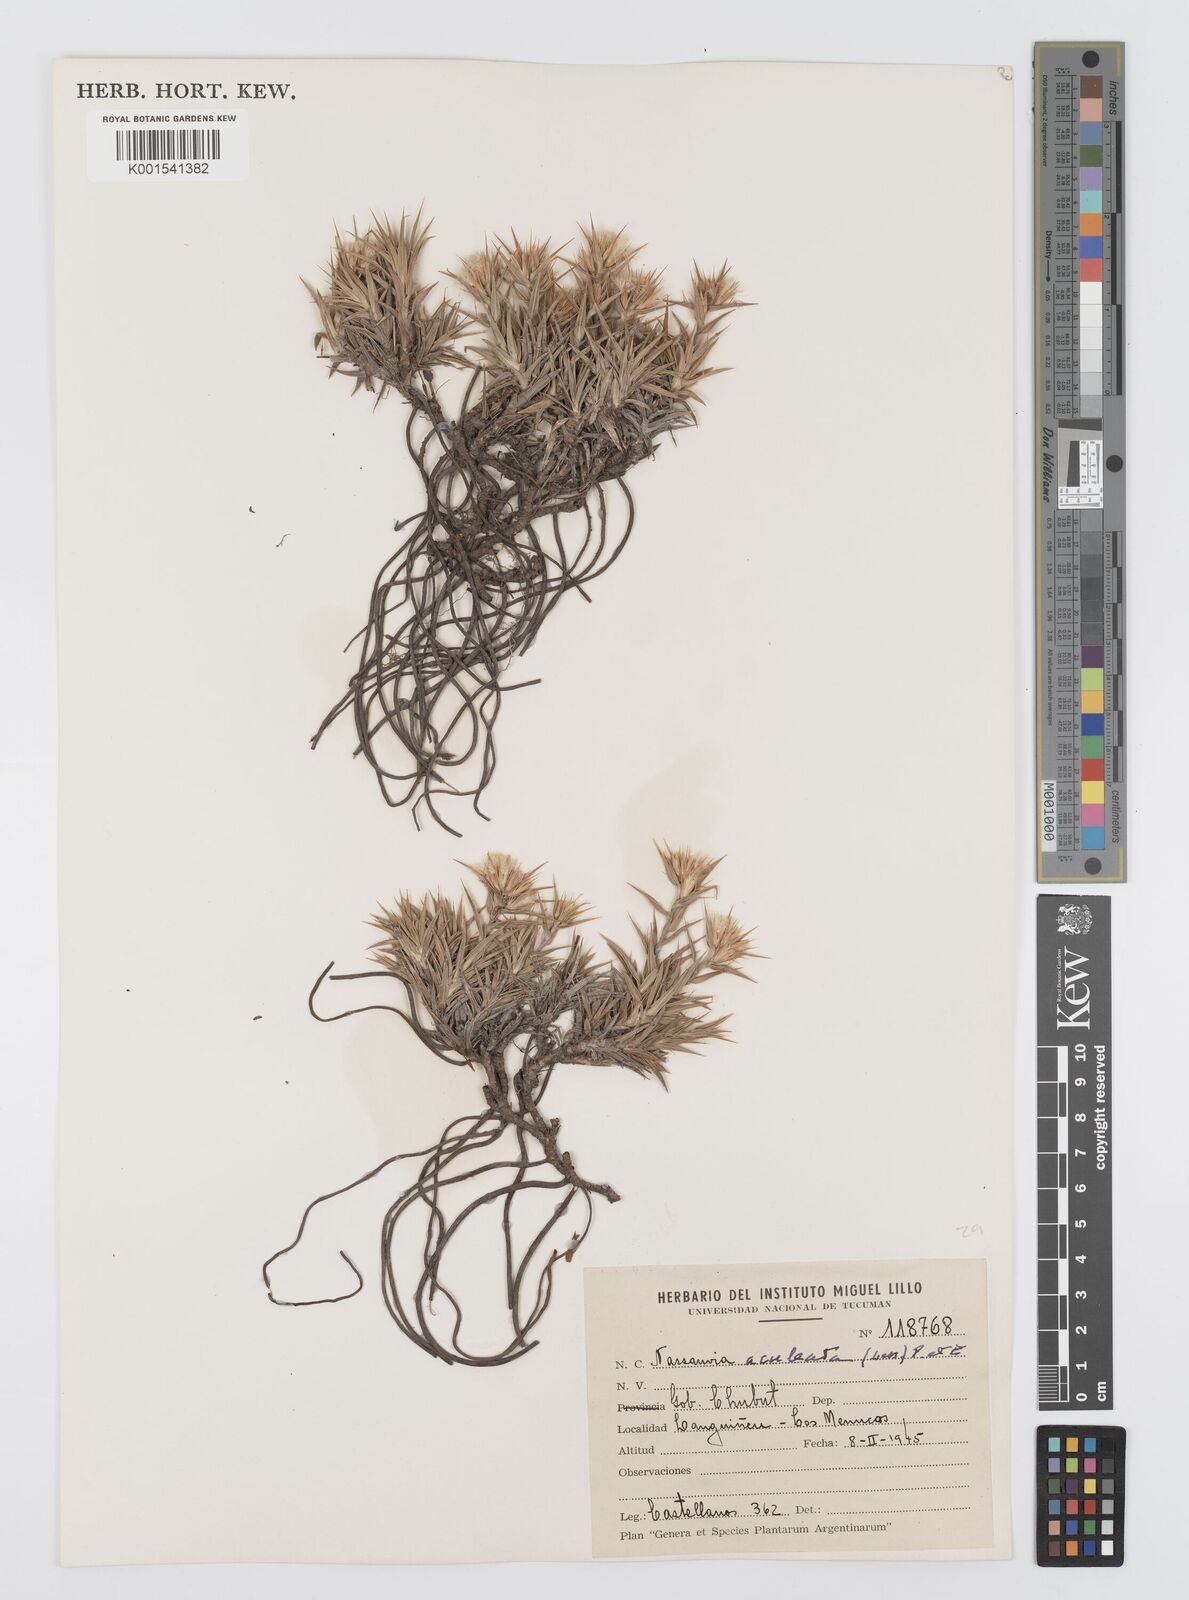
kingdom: Plantae
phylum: Tracheophyta
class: Magnoliopsida
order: Asterales
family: Asteraceae
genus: Nassauvia
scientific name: Nassauvia aculeata
